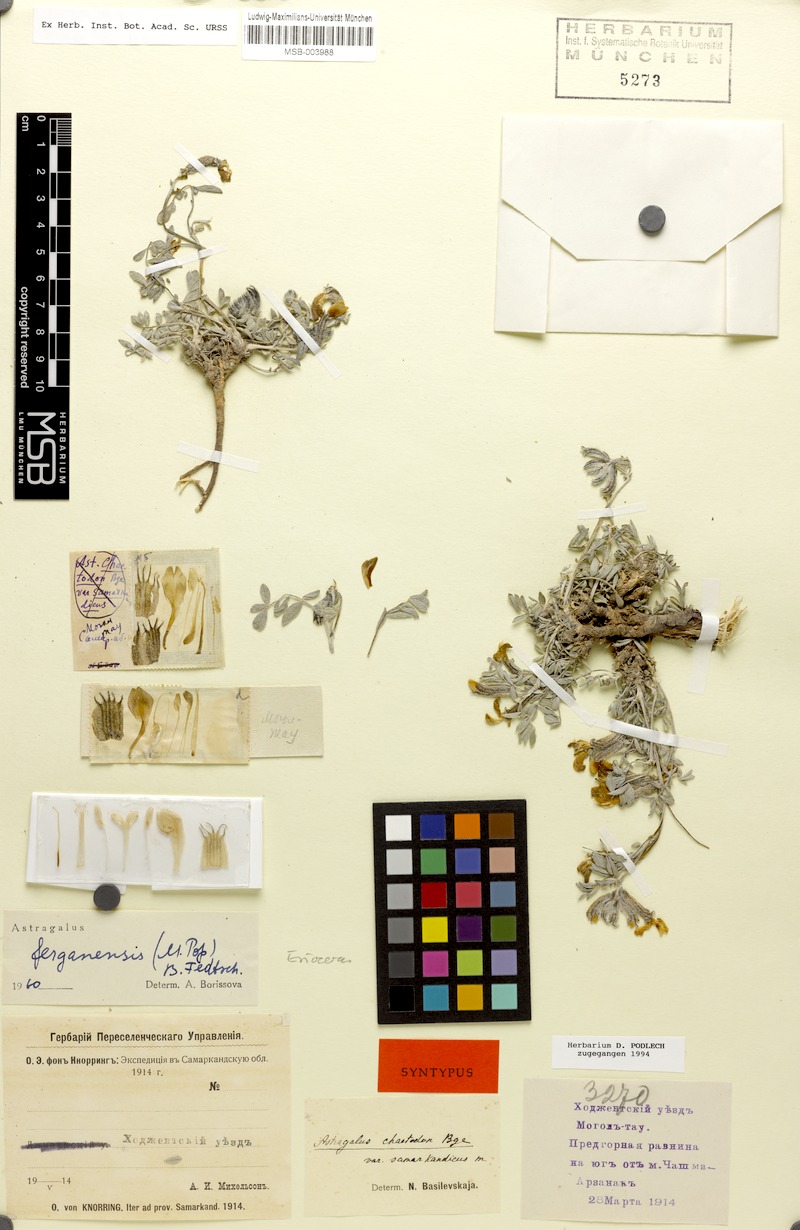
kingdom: Plantae
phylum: Tracheophyta
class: Magnoliopsida
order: Fabales
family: Fabaceae
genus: Astragalus
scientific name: Astragalus ferganensis
